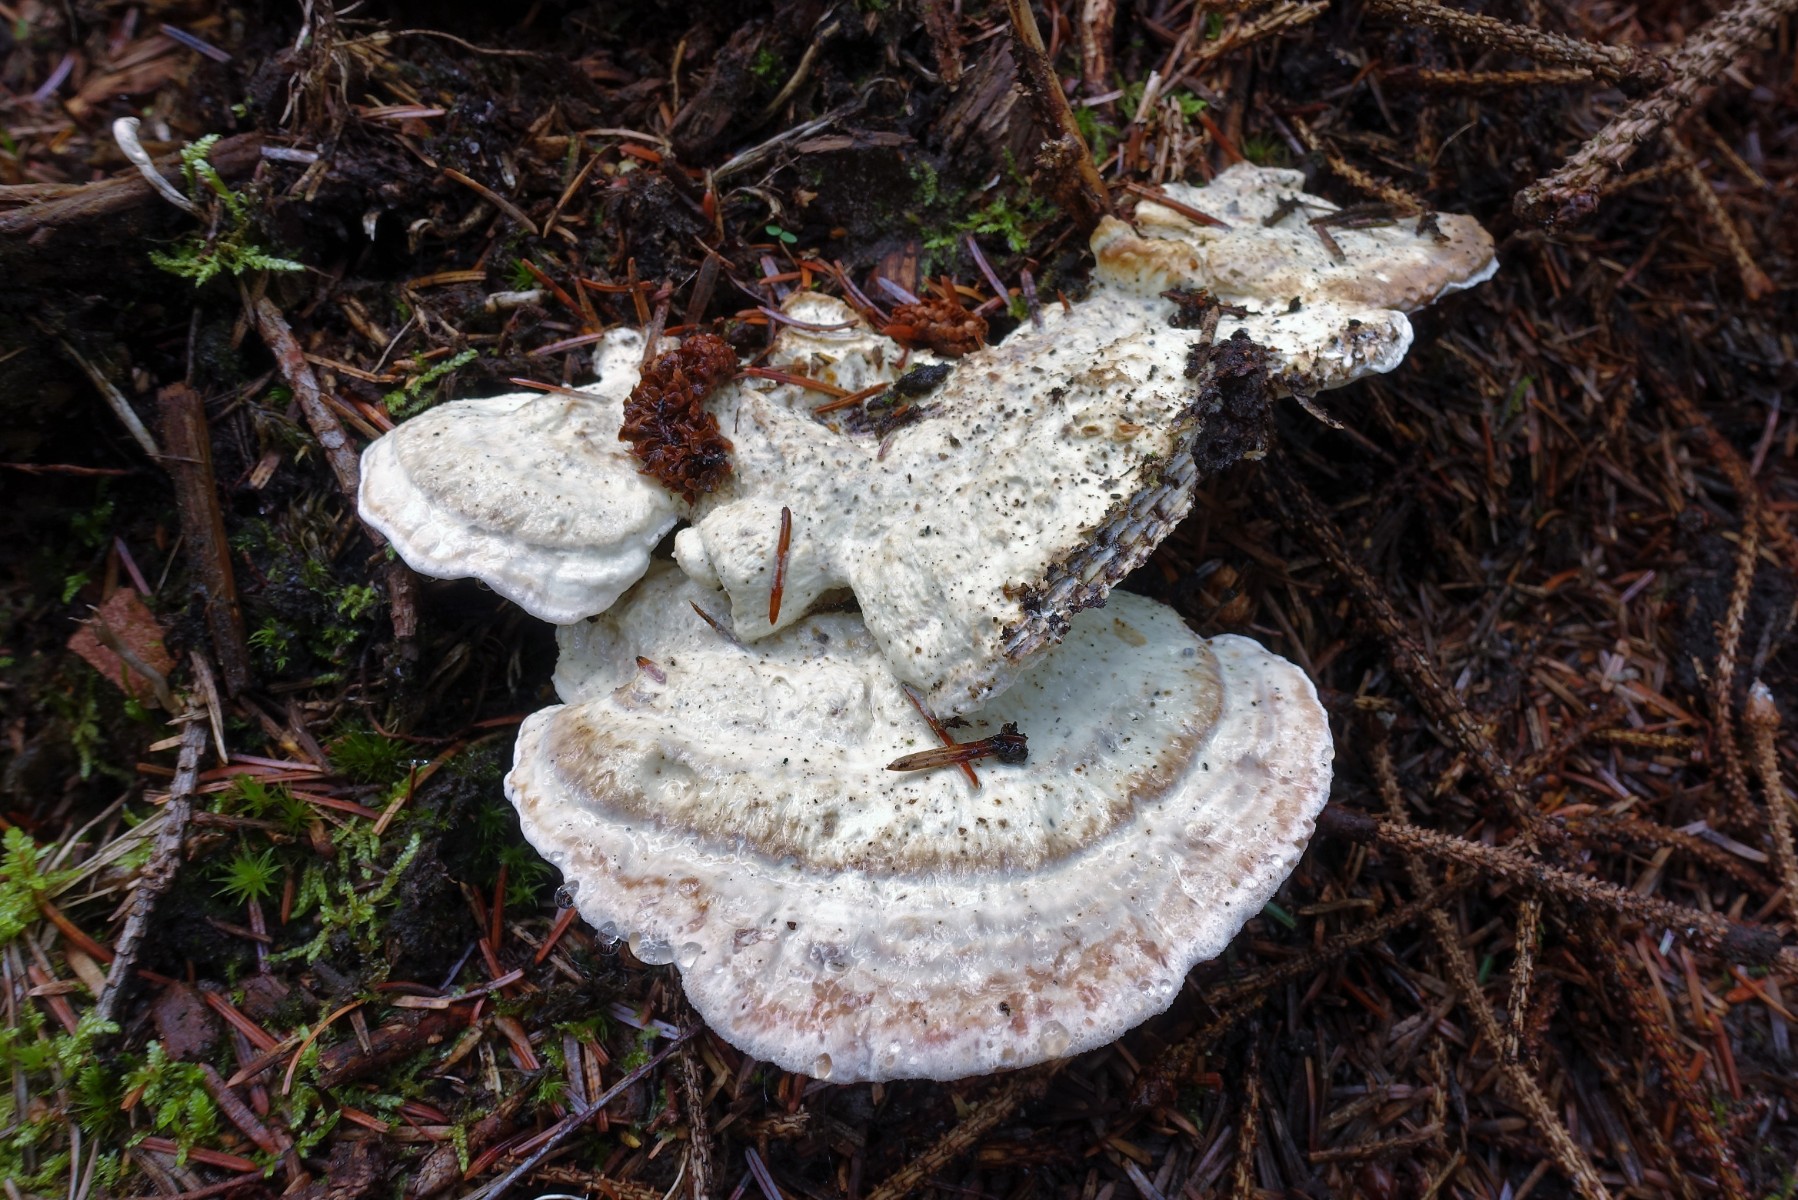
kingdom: Fungi
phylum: Basidiomycota
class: Agaricomycetes
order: Polyporales
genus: Calcipostia
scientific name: Calcipostia guttulata
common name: dråbe-kødporesvamp
